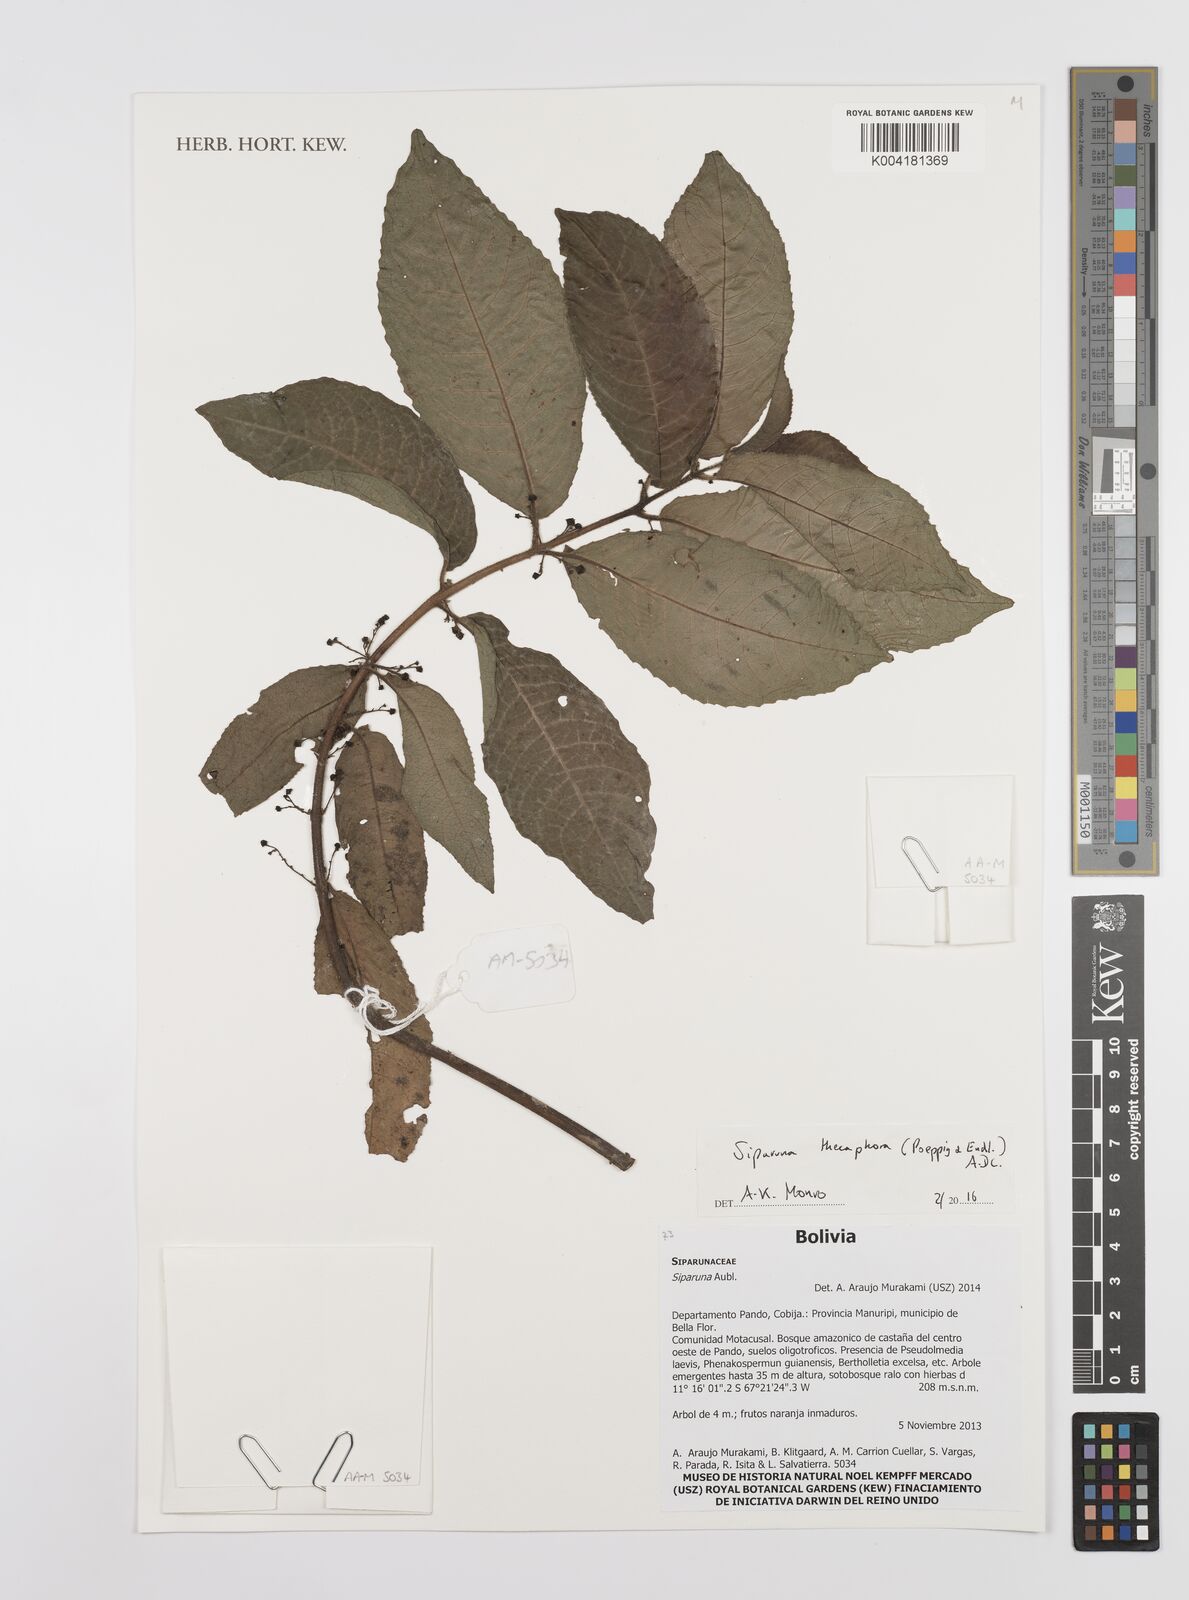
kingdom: Plantae
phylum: Tracheophyta
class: Magnoliopsida
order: Laurales
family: Siparunaceae
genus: Siparuna
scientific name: Siparuna thecaphora
